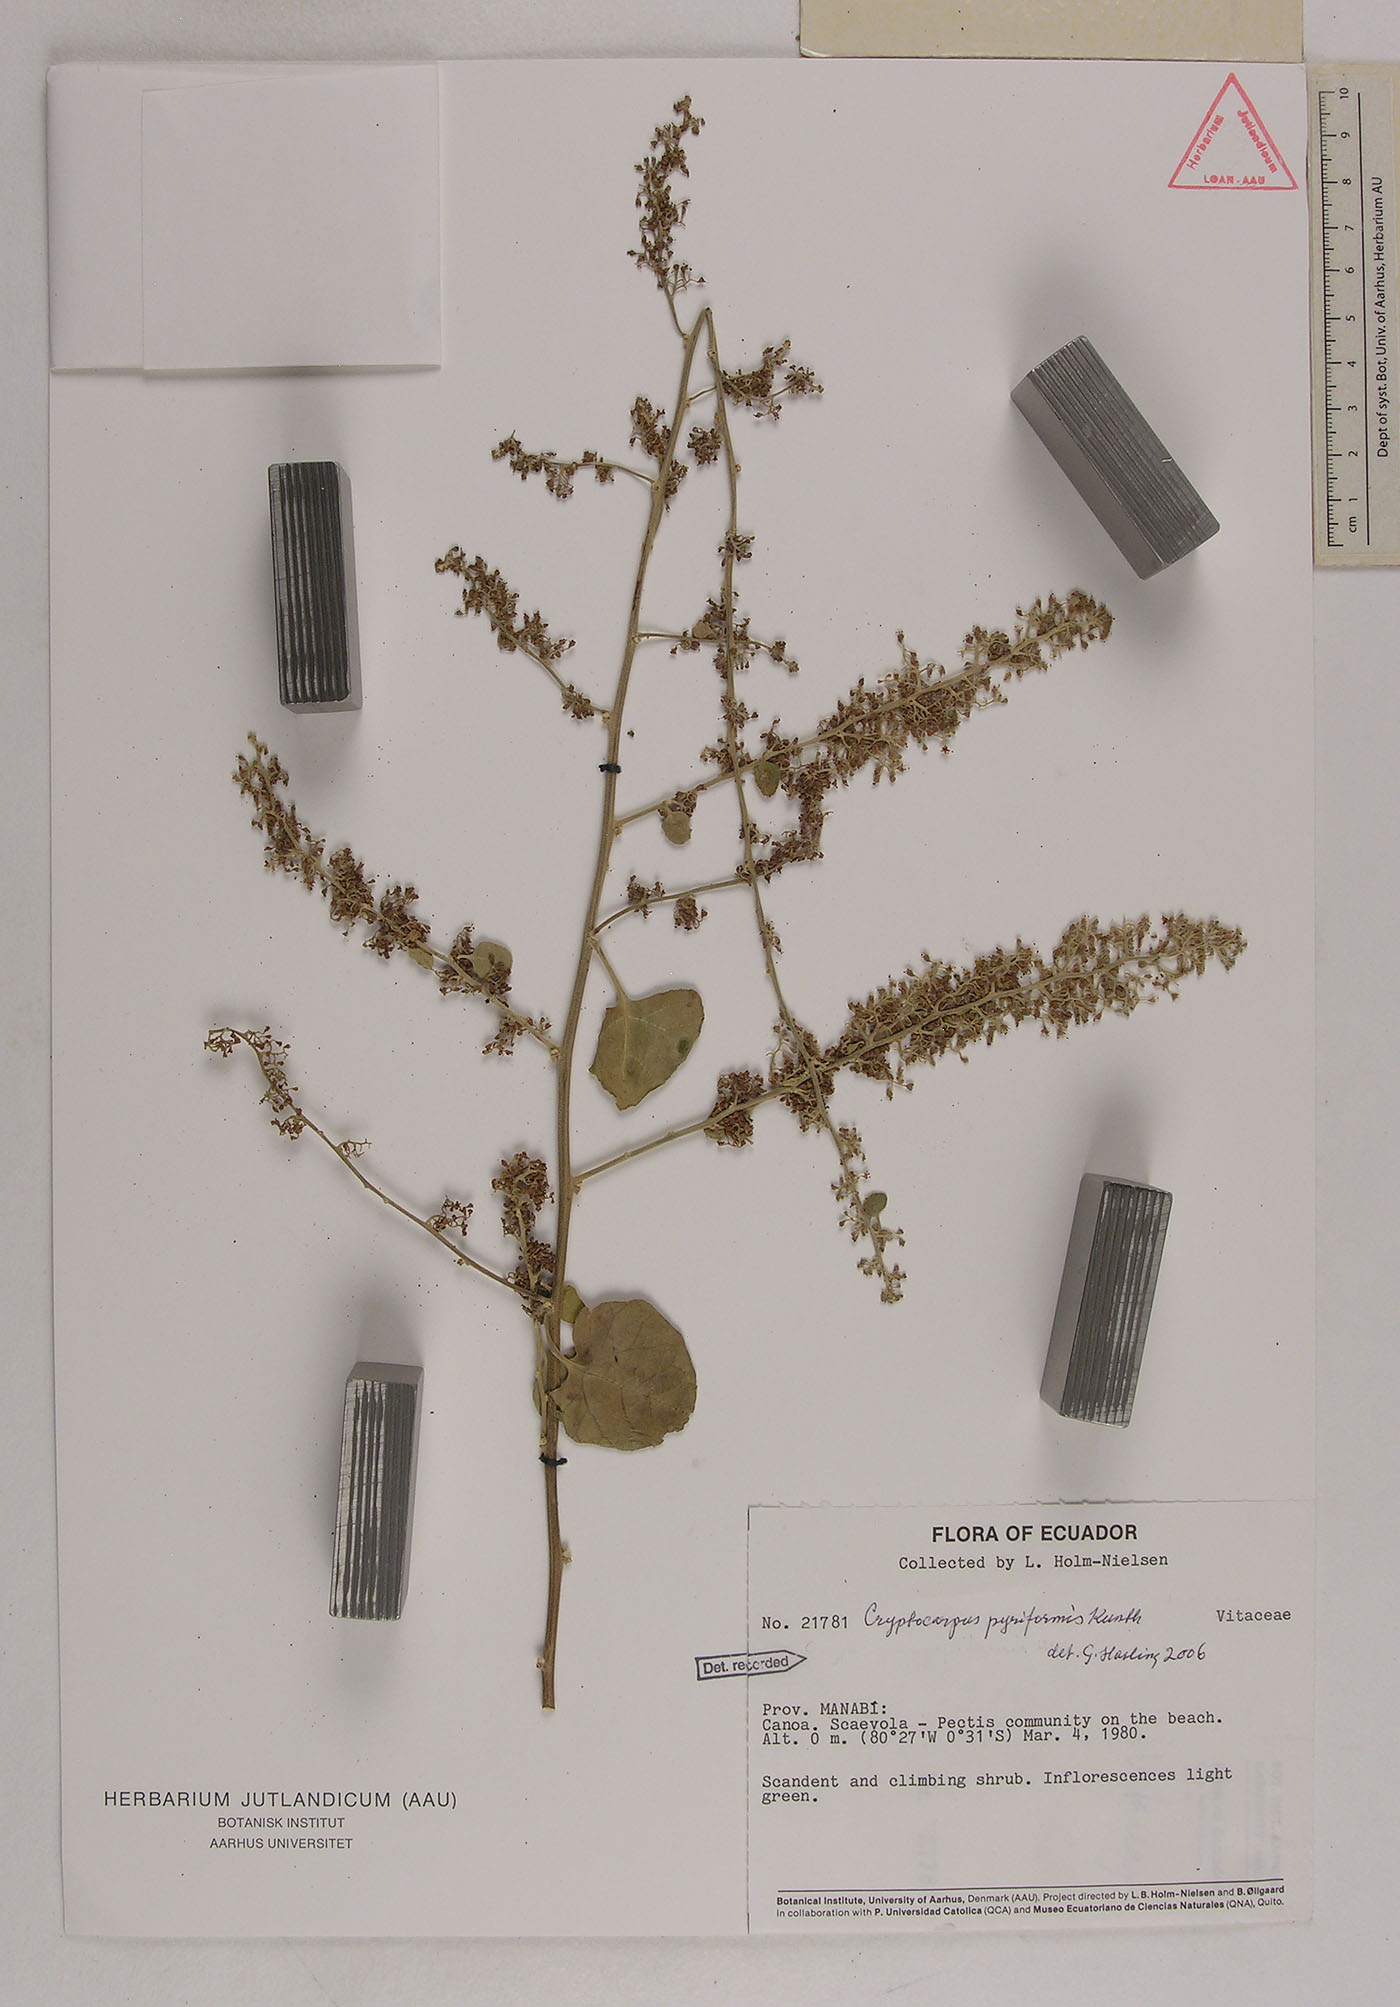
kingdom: Plantae
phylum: Tracheophyta
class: Magnoliopsida
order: Caryophyllales
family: Nyctaginaceae
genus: Cryptocarpus
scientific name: Cryptocarpus pyriformis
